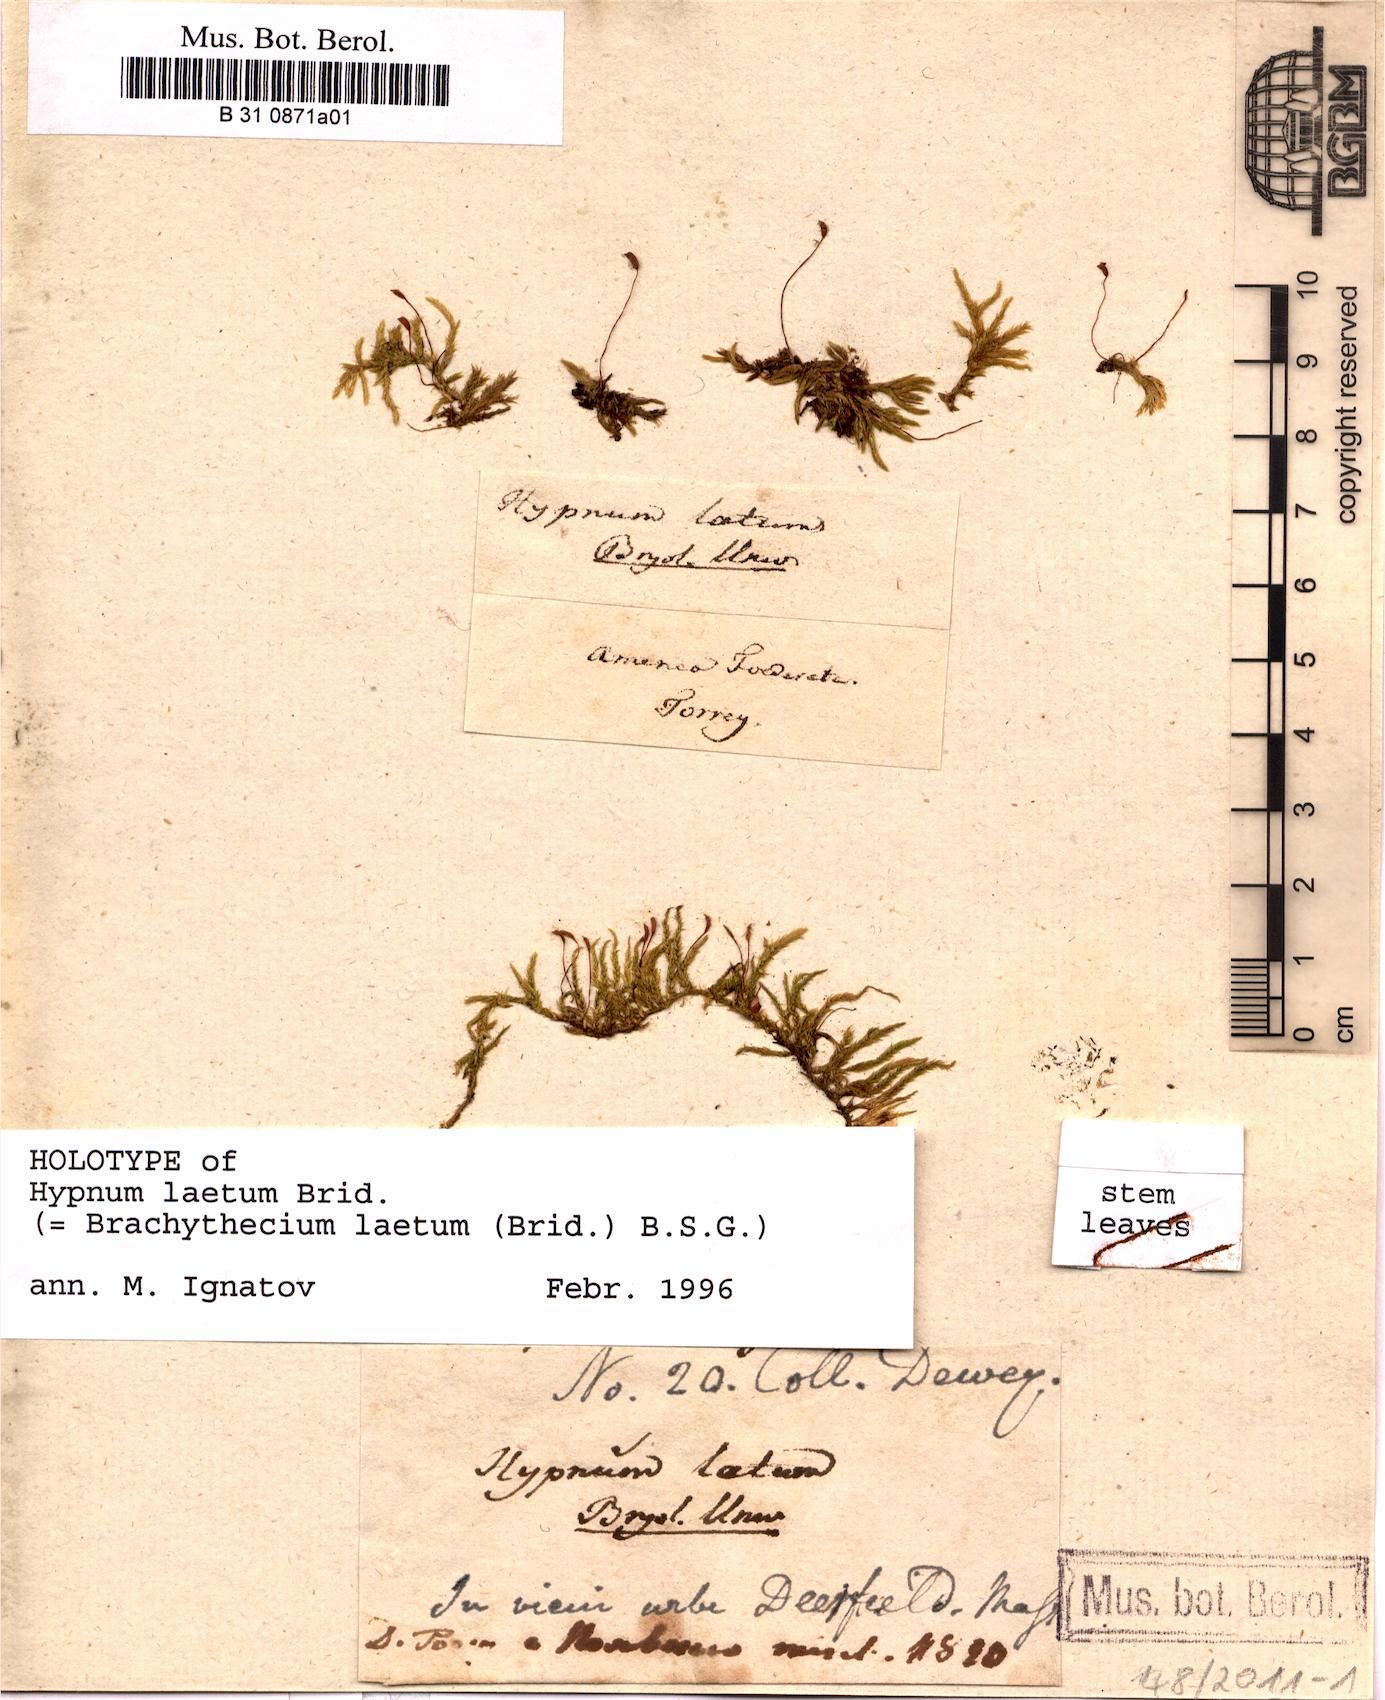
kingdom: Plantae
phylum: Bryophyta
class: Bryopsida
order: Hypnales
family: Brachytheciaceae
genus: Brachythecium
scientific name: Brachythecium laetum
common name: Bright ragged moss
